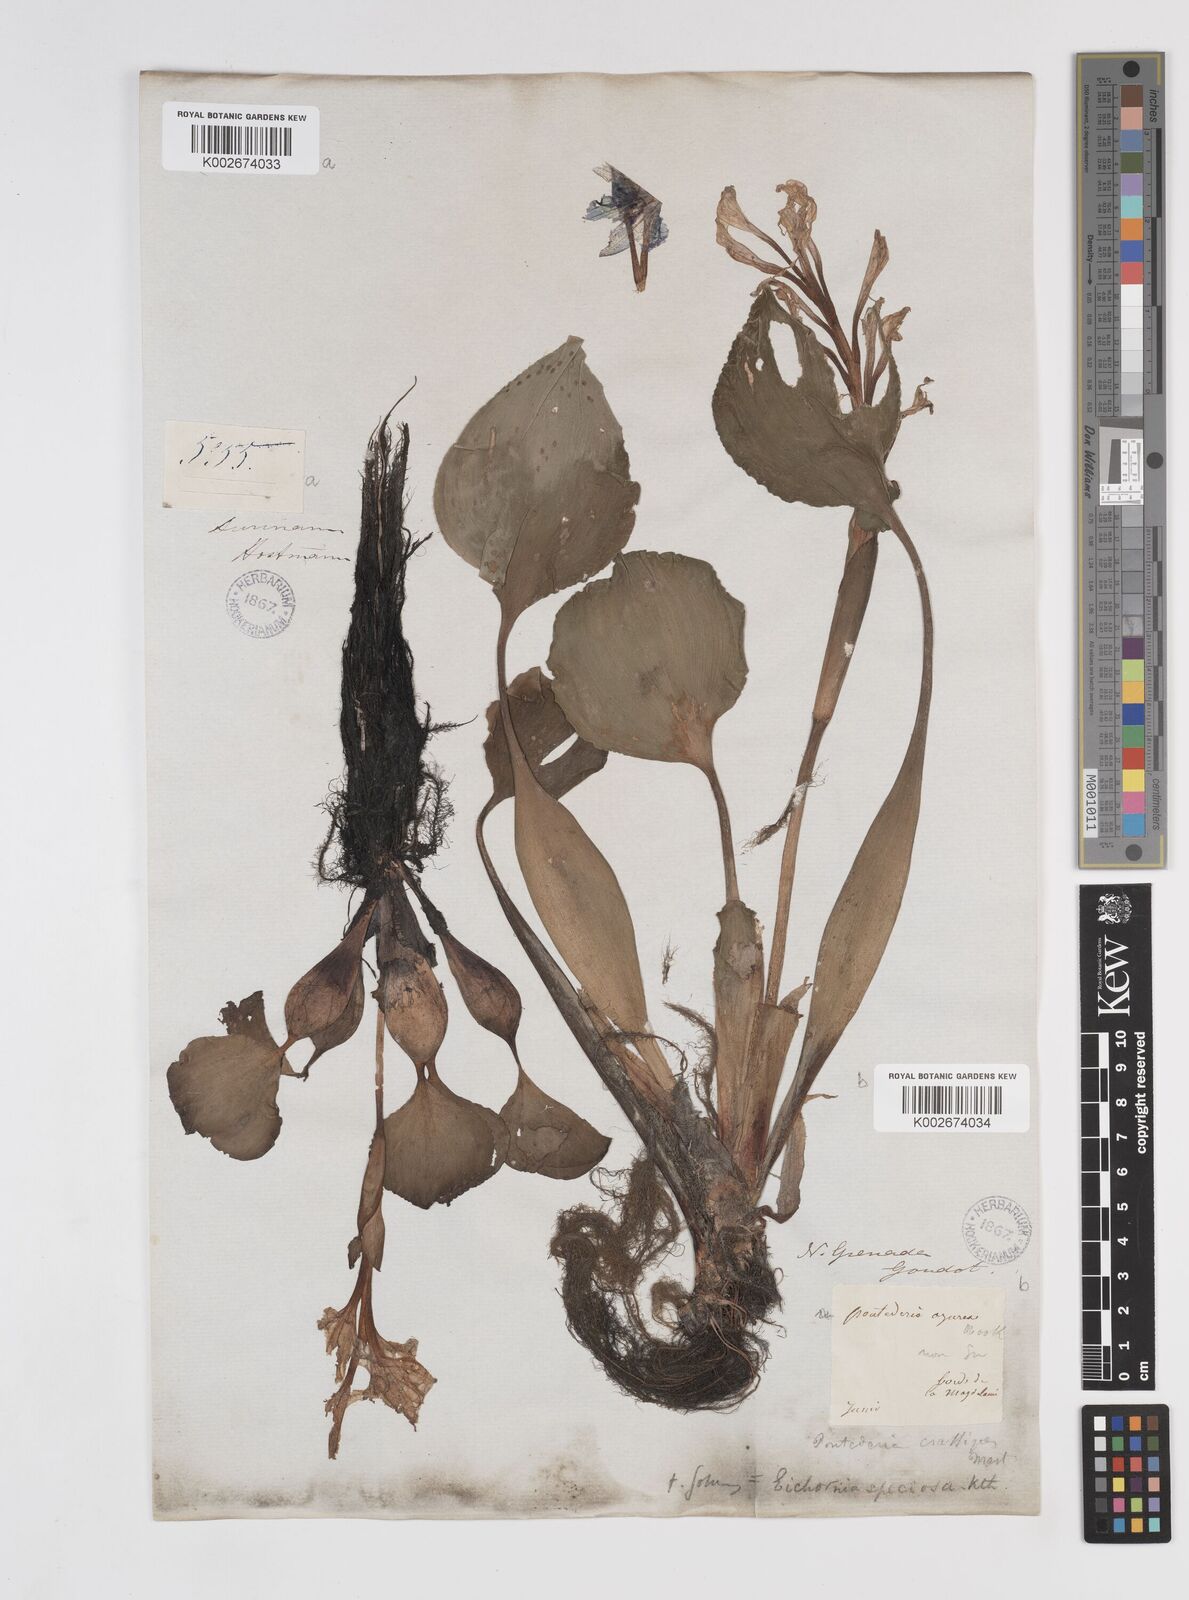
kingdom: Plantae
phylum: Tracheophyta
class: Liliopsida
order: Commelinales
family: Pontederiaceae
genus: Pontederia
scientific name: Pontederia crassipes
